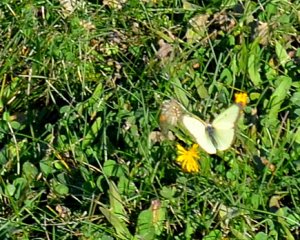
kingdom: Animalia
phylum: Arthropoda
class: Insecta
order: Lepidoptera
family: Pieridae
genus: Colias
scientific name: Colias philodice
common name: Clouded Sulphur
